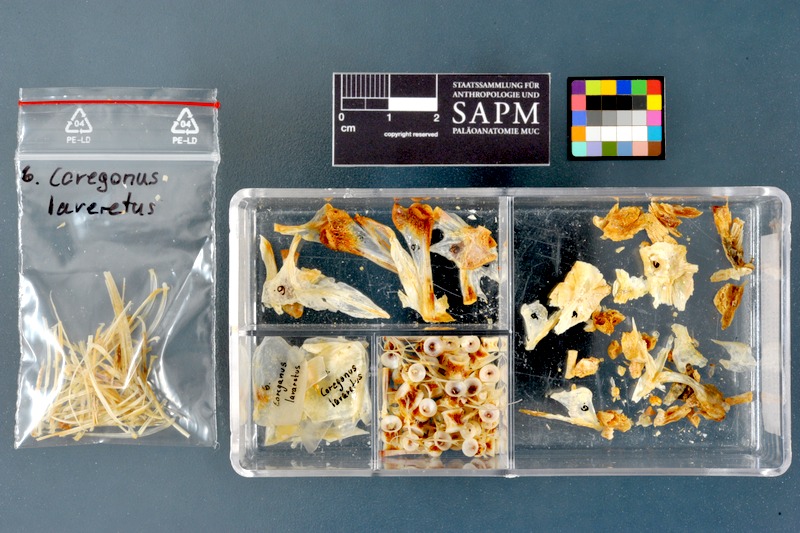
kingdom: Animalia
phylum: Chordata
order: Salmoniformes
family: Salmonidae
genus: Coregonus
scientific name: Coregonus lavaretus
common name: Schelly
